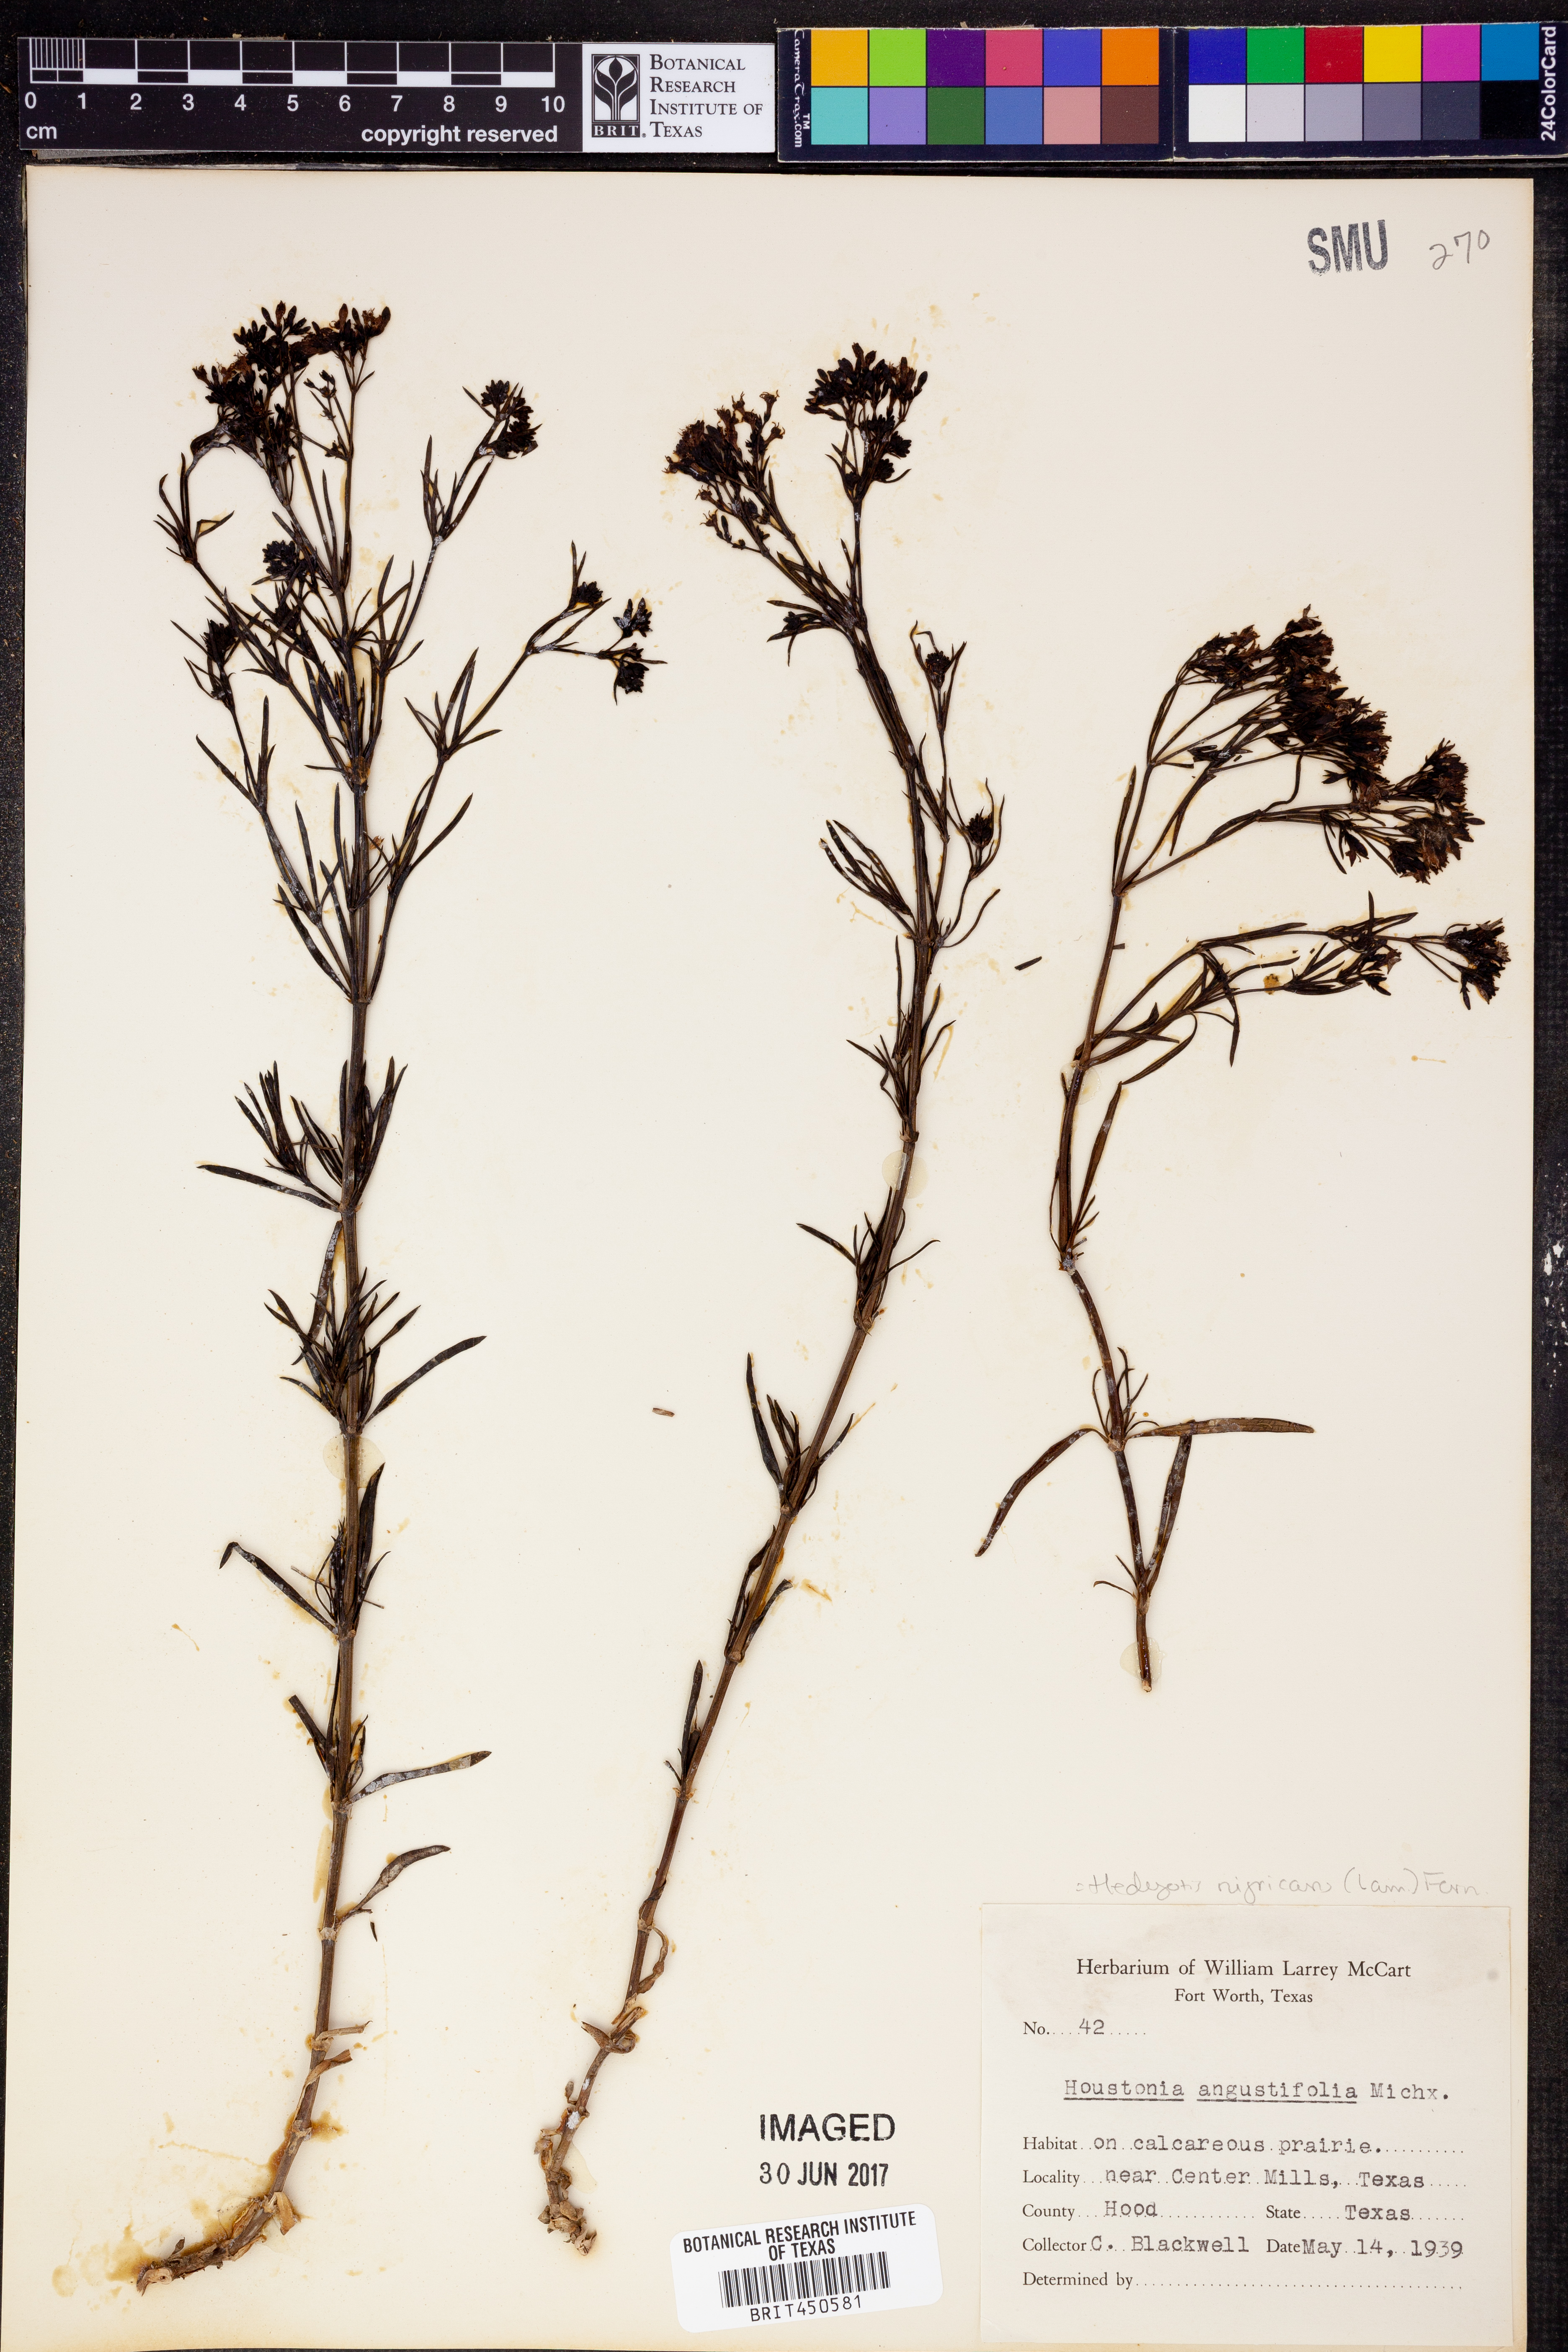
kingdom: Plantae
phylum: Tracheophyta
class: Magnoliopsida
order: Gentianales
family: Rubiaceae
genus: Stenaria
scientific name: Stenaria nigricans
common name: Diamondflowers
